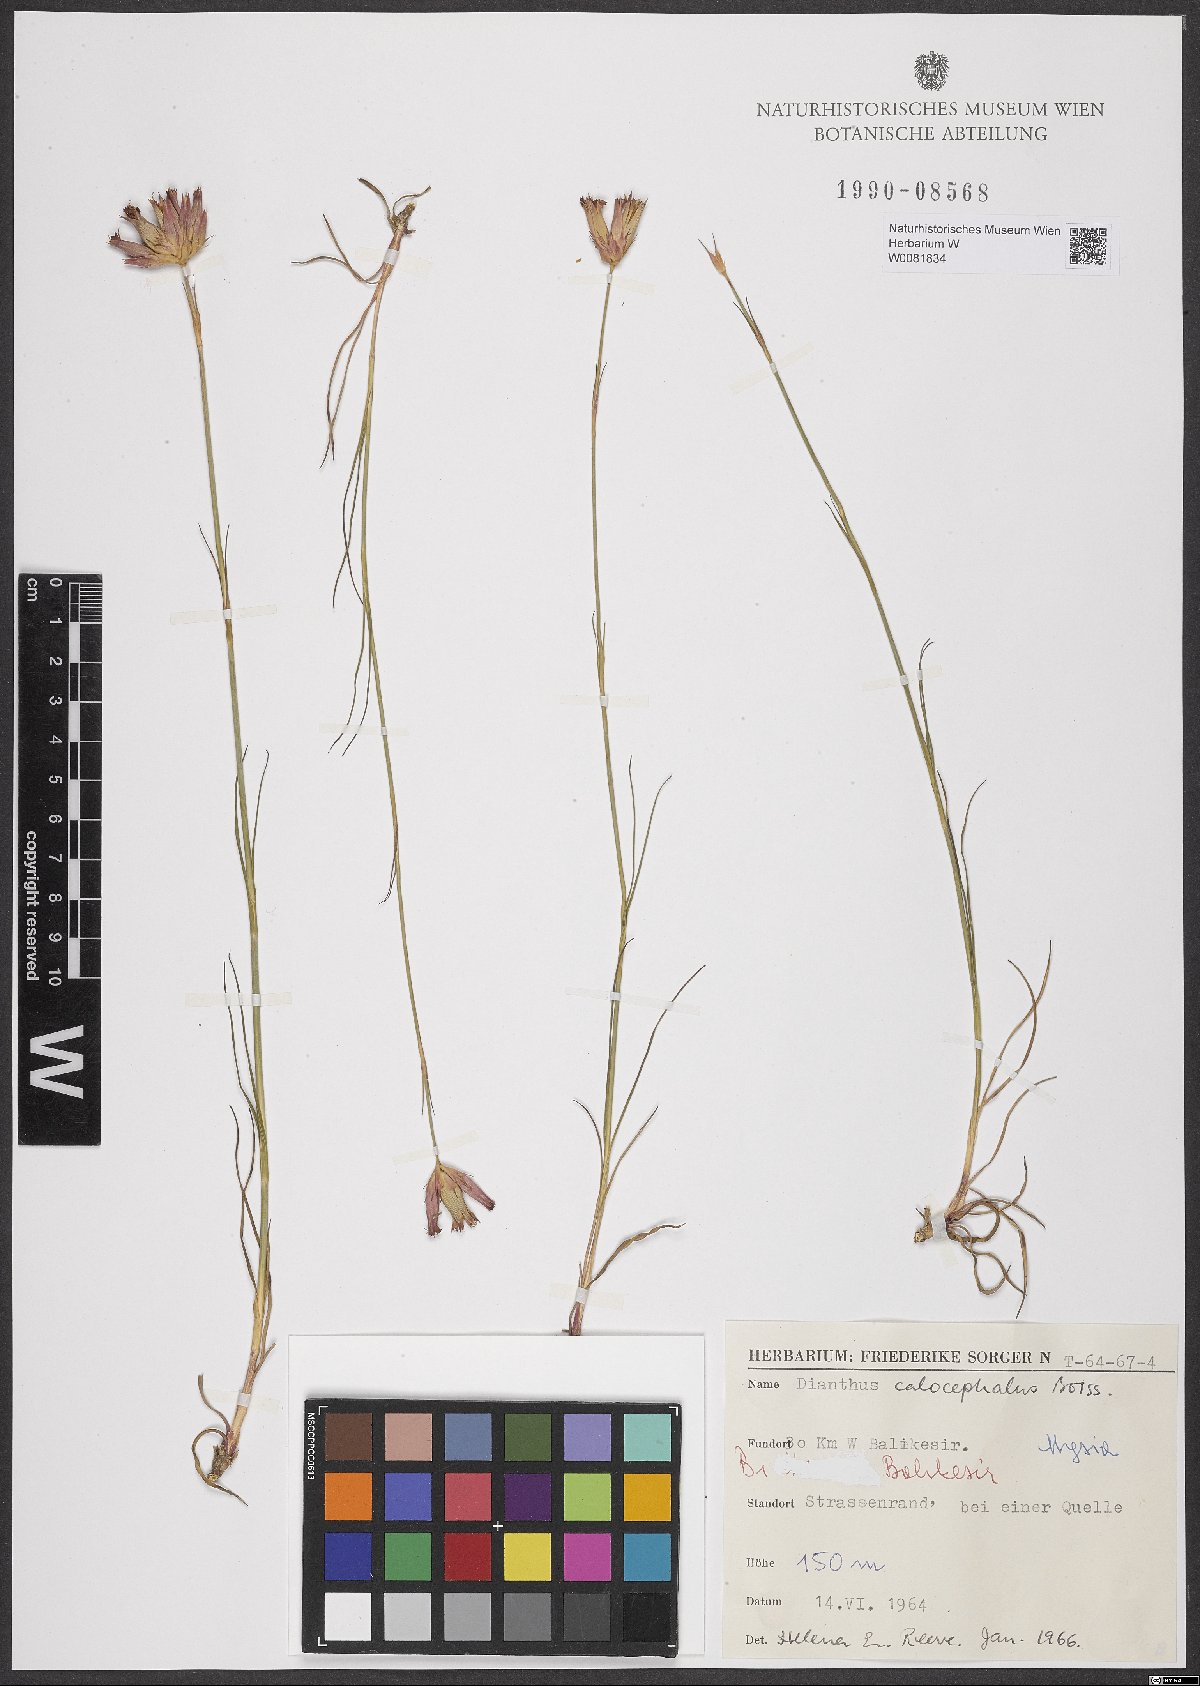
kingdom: Plantae
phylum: Tracheophyta
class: Magnoliopsida
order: Caryophyllales
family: Caryophyllaceae
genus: Dianthus
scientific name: Dianthus cruentus
